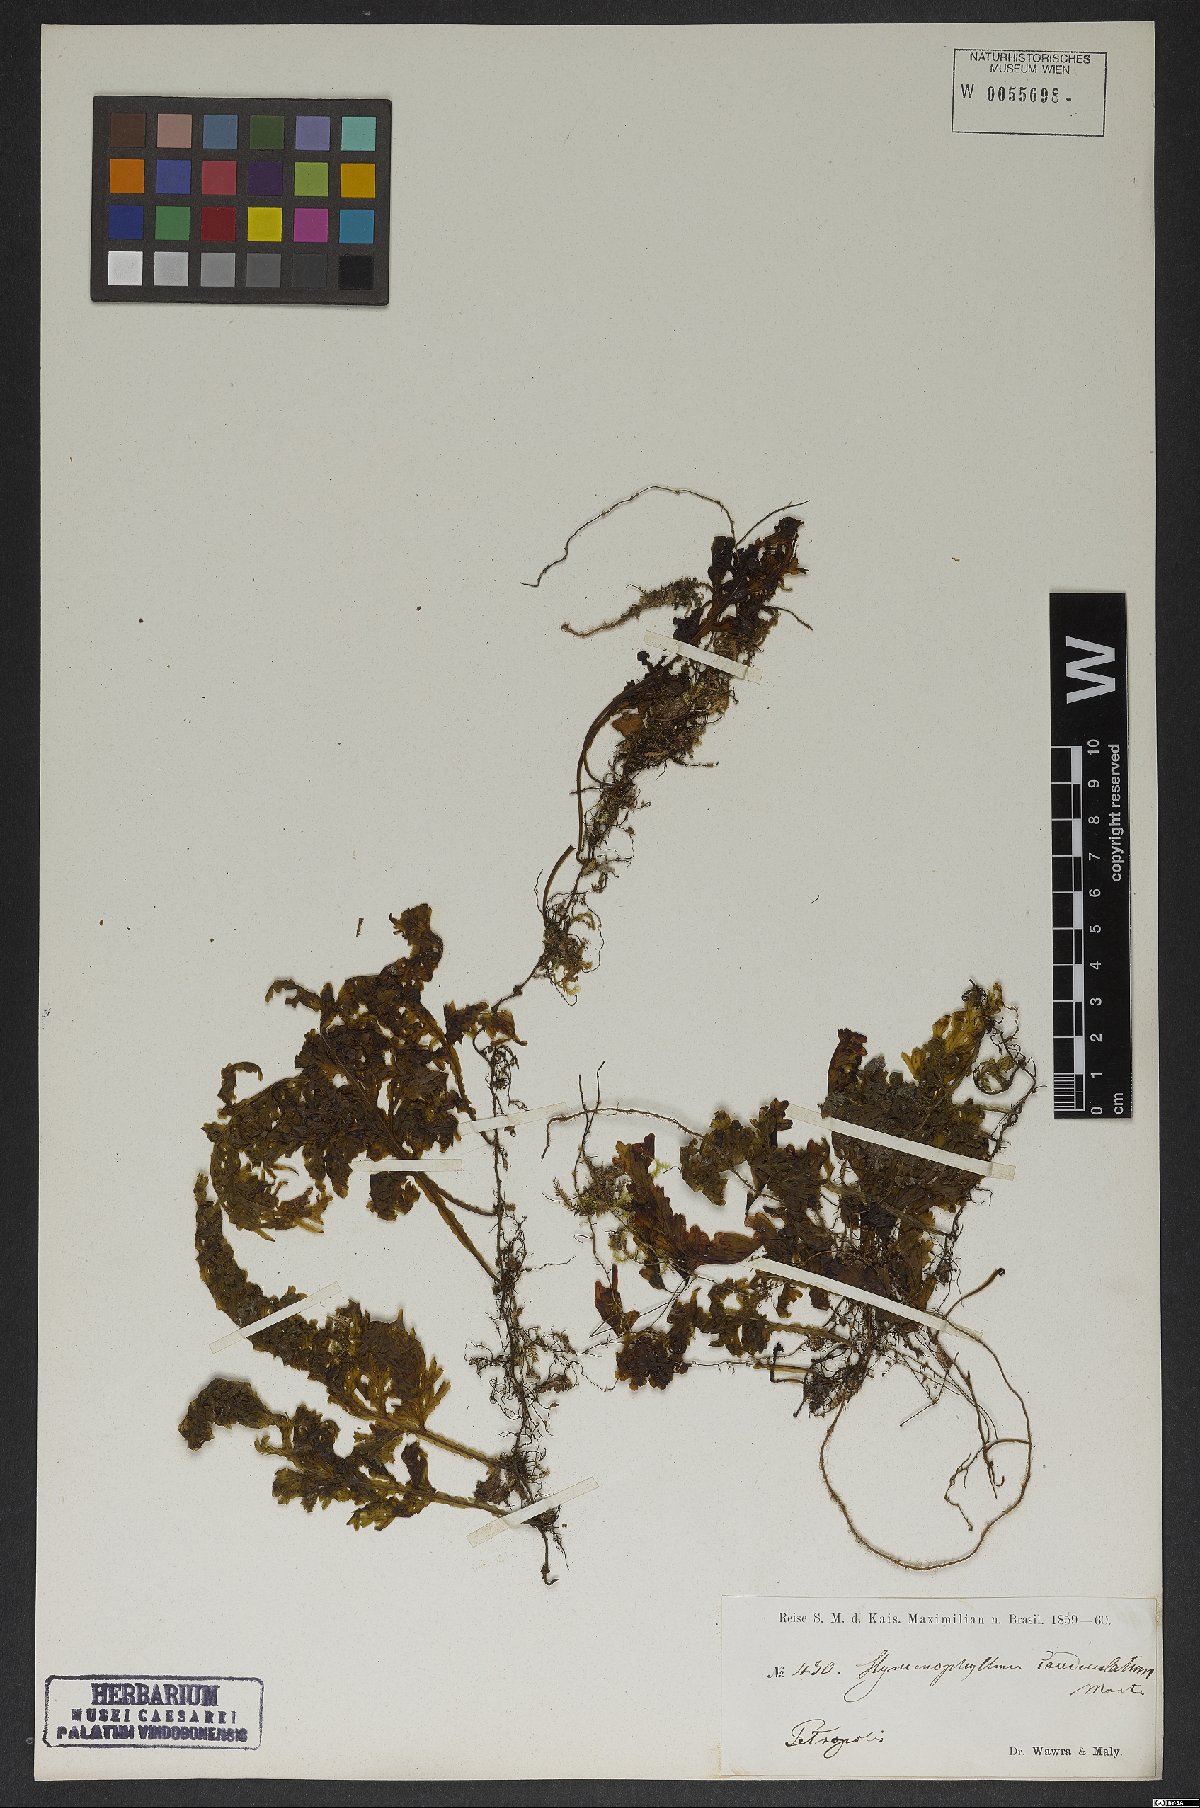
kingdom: Plantae
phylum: Tracheophyta
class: Polypodiopsida
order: Hymenophyllales
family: Hymenophyllaceae
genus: Hymenophyllum
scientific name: Hymenophyllum asplenioides
